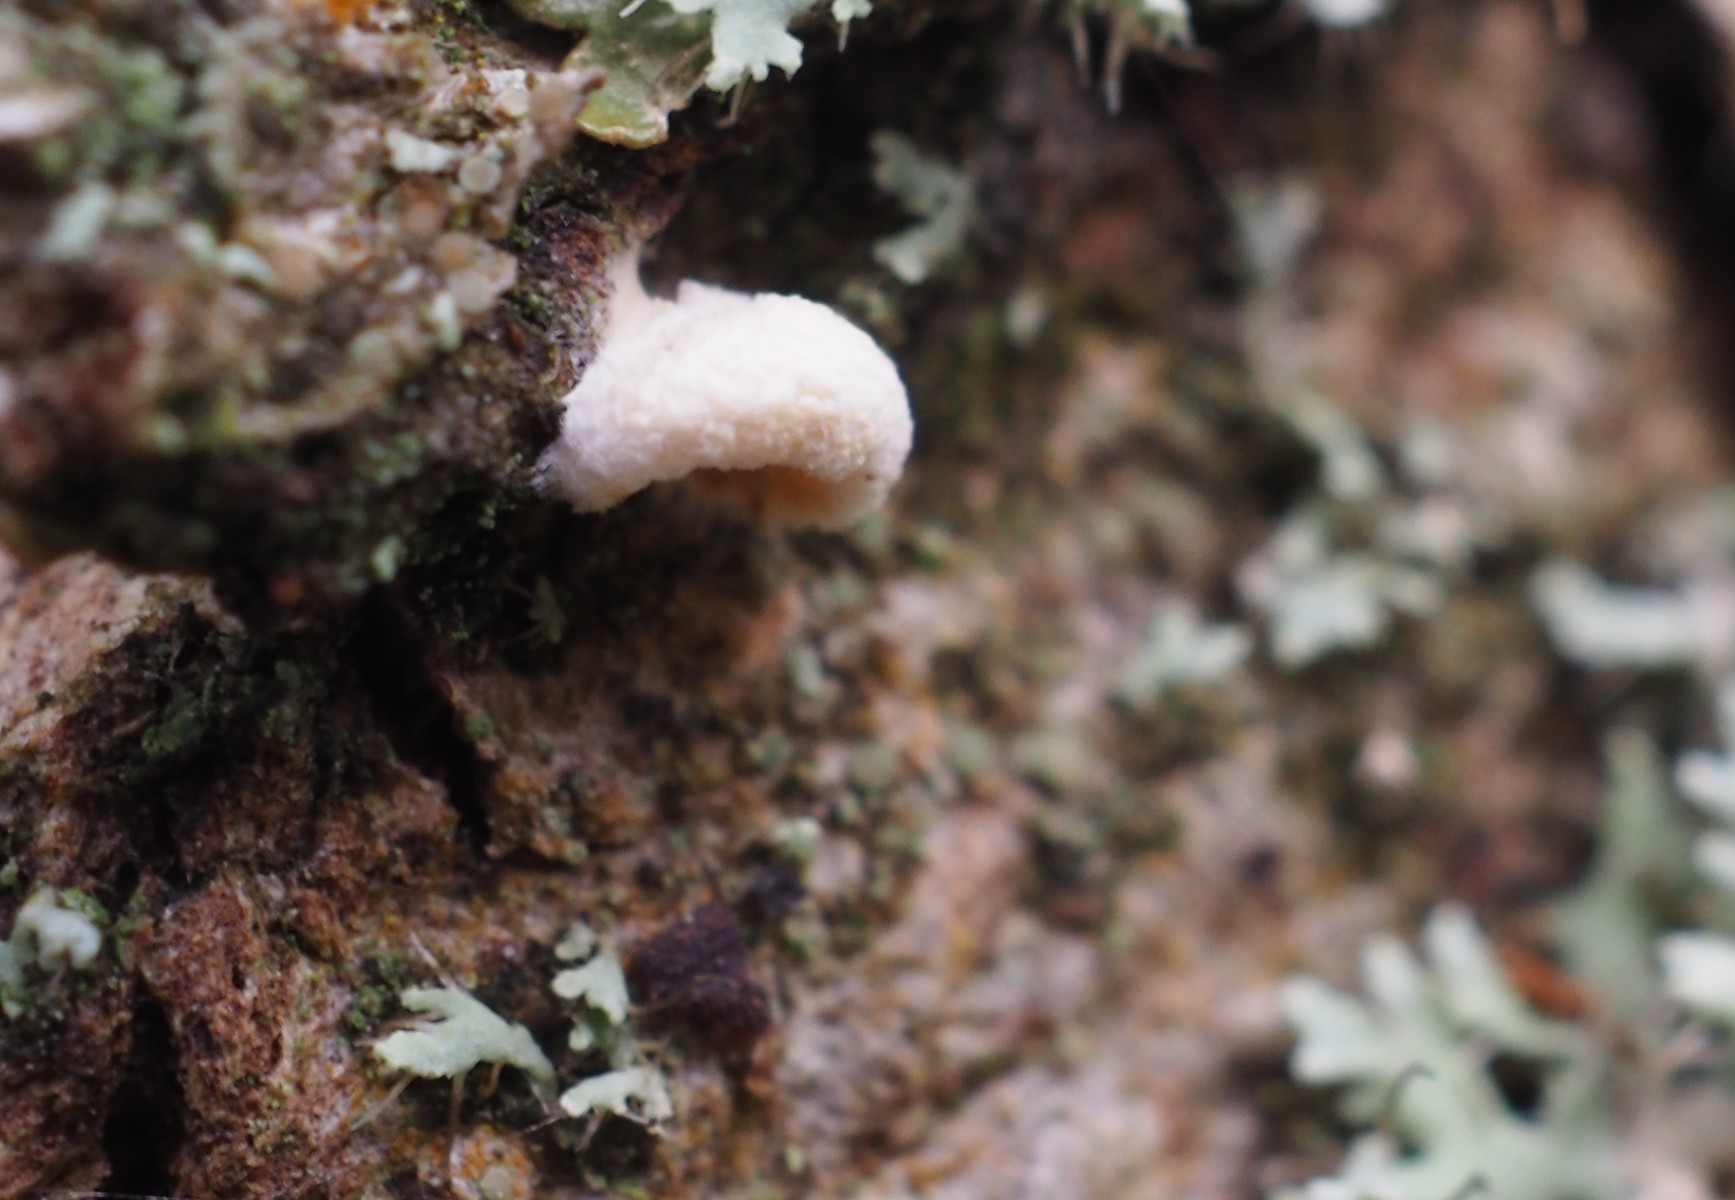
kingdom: Fungi
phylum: Basidiomycota
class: Agaricomycetes
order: Agaricales
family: Crepidotaceae
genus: Crepidotus
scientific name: Crepidotus cesatii
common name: almindelig muslingesvamp
